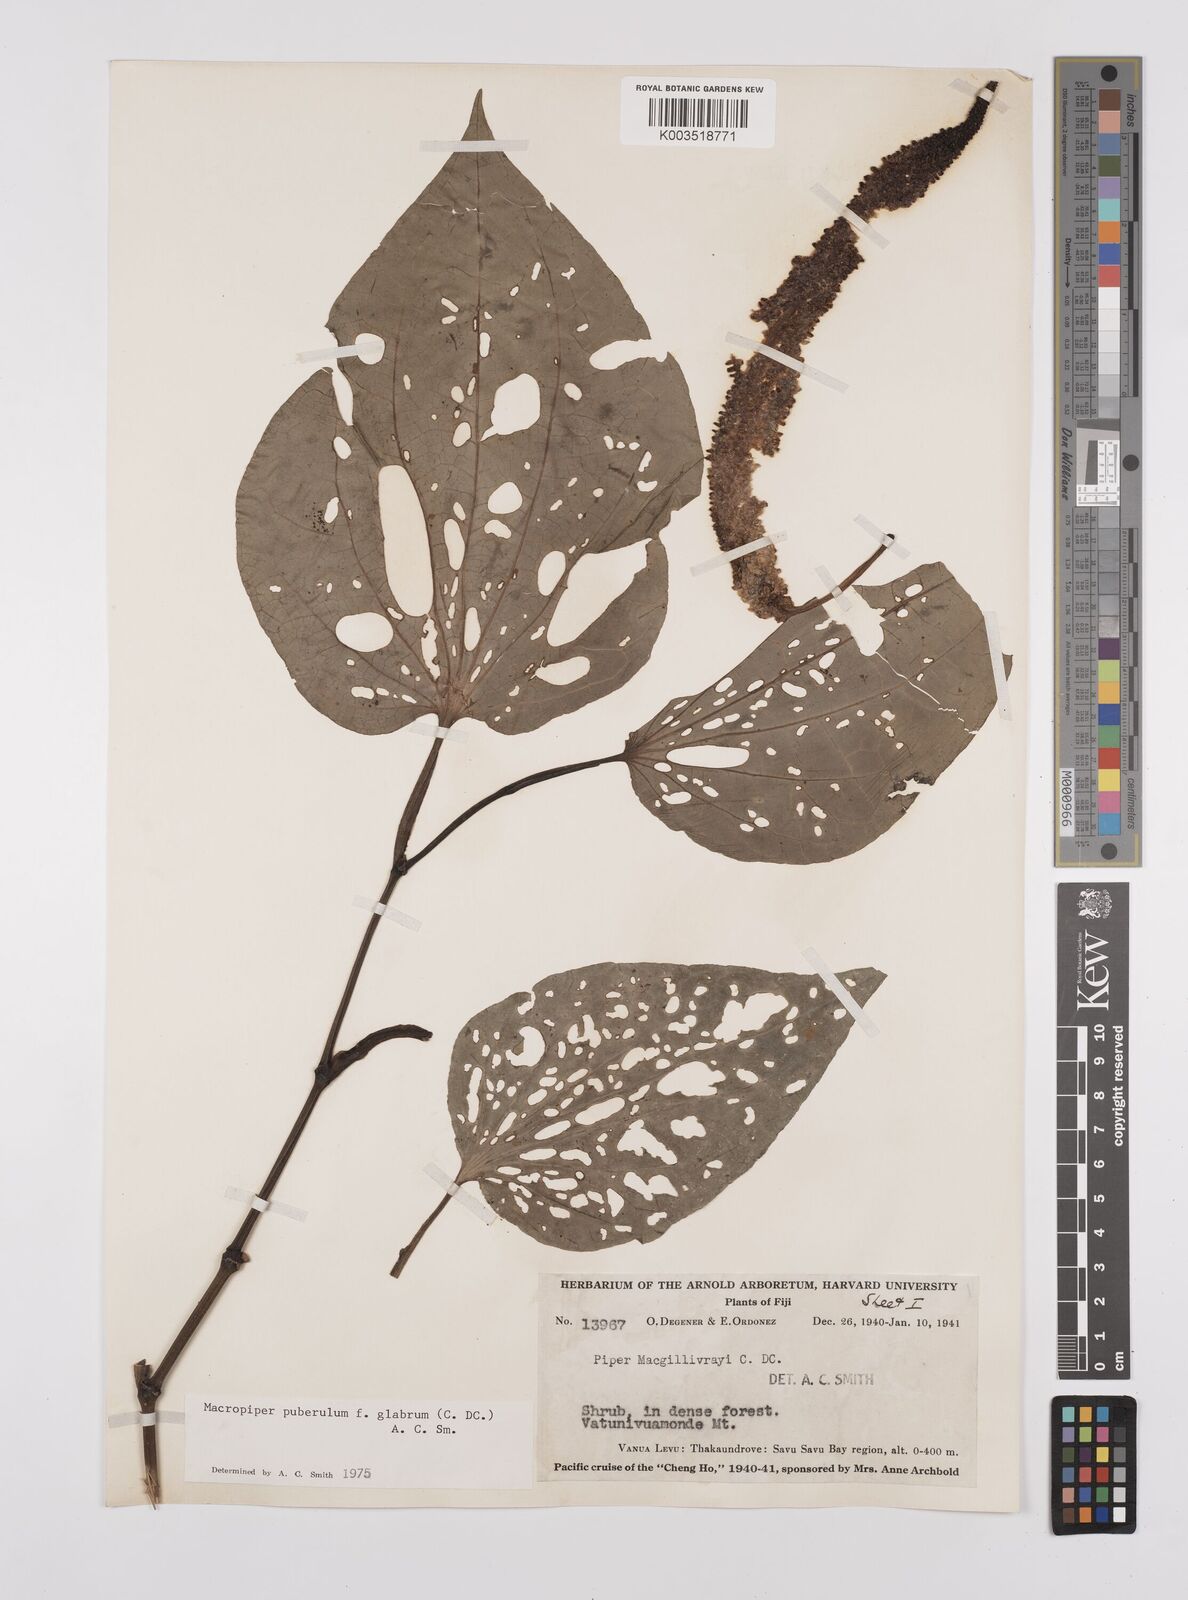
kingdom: Plantae
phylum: Tracheophyta
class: Magnoliopsida
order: Piperales
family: Piperaceae
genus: Macropiper
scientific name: Macropiper puberulum
